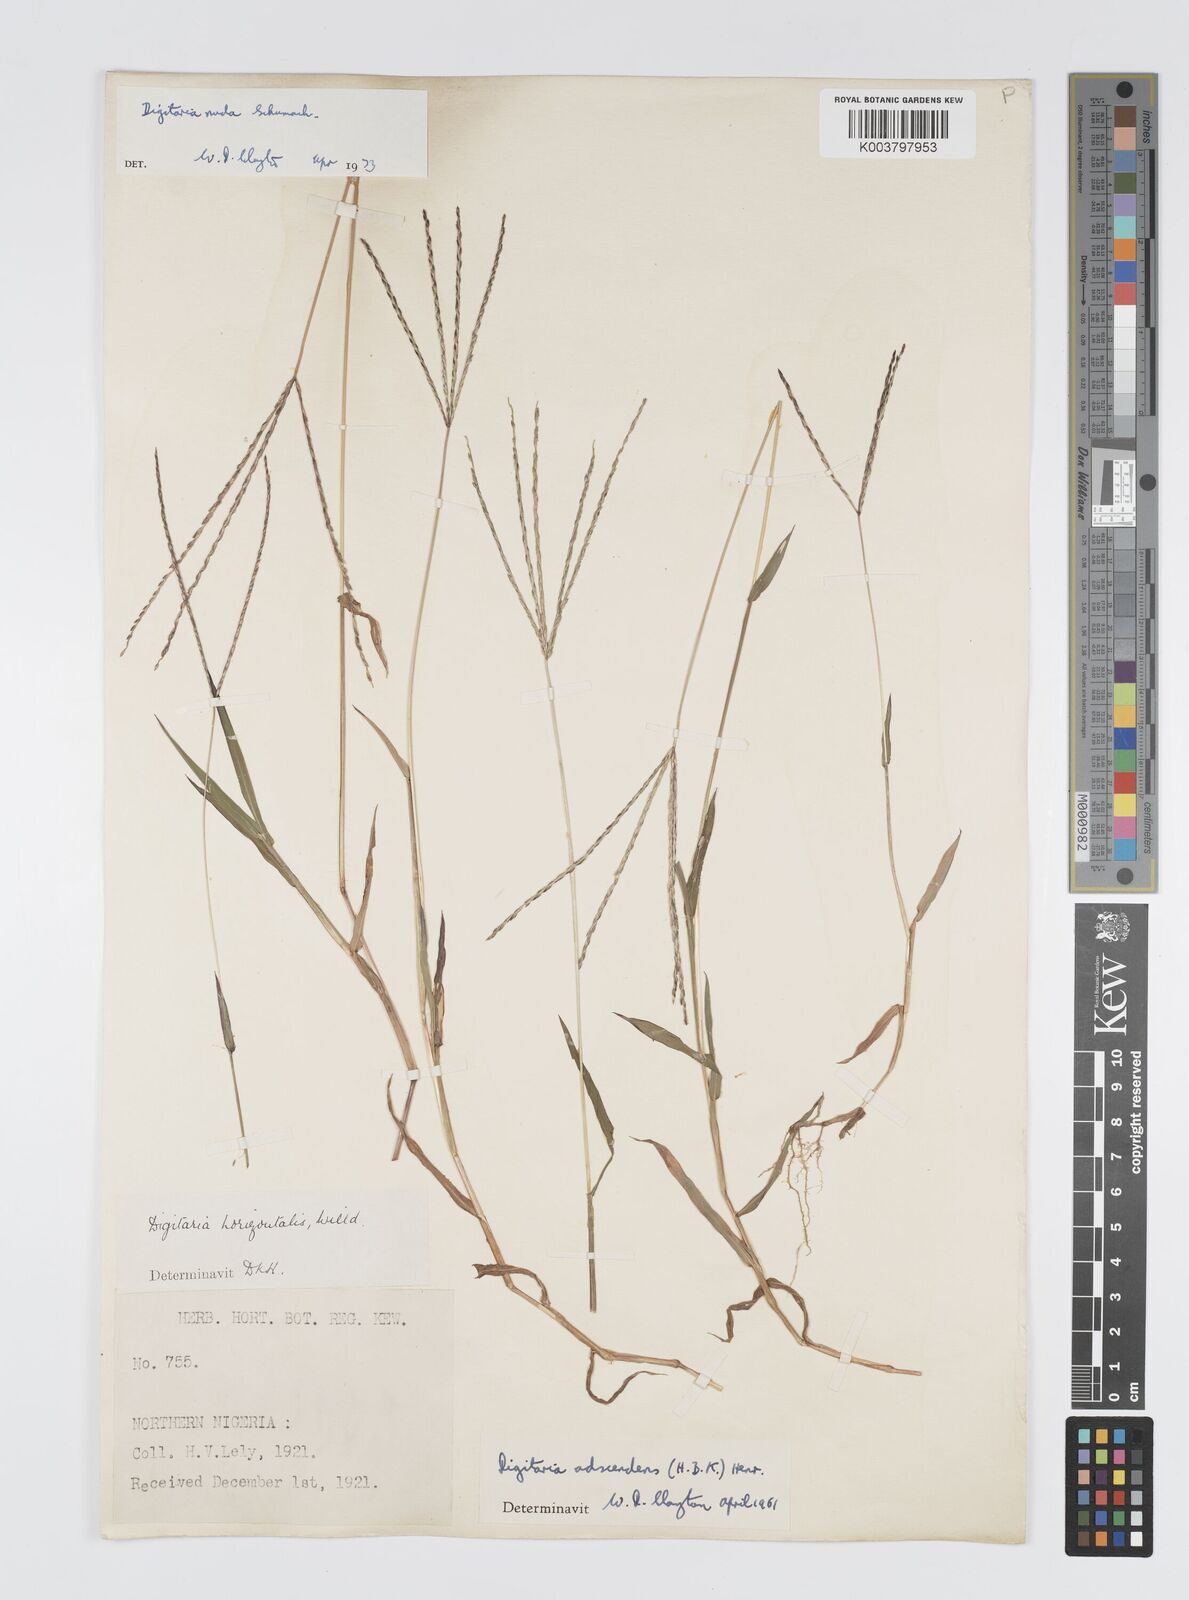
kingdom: Plantae
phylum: Tracheophyta
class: Liliopsida
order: Poales
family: Poaceae
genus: Digitaria
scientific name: Digitaria nuda
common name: Naked crabgrass
